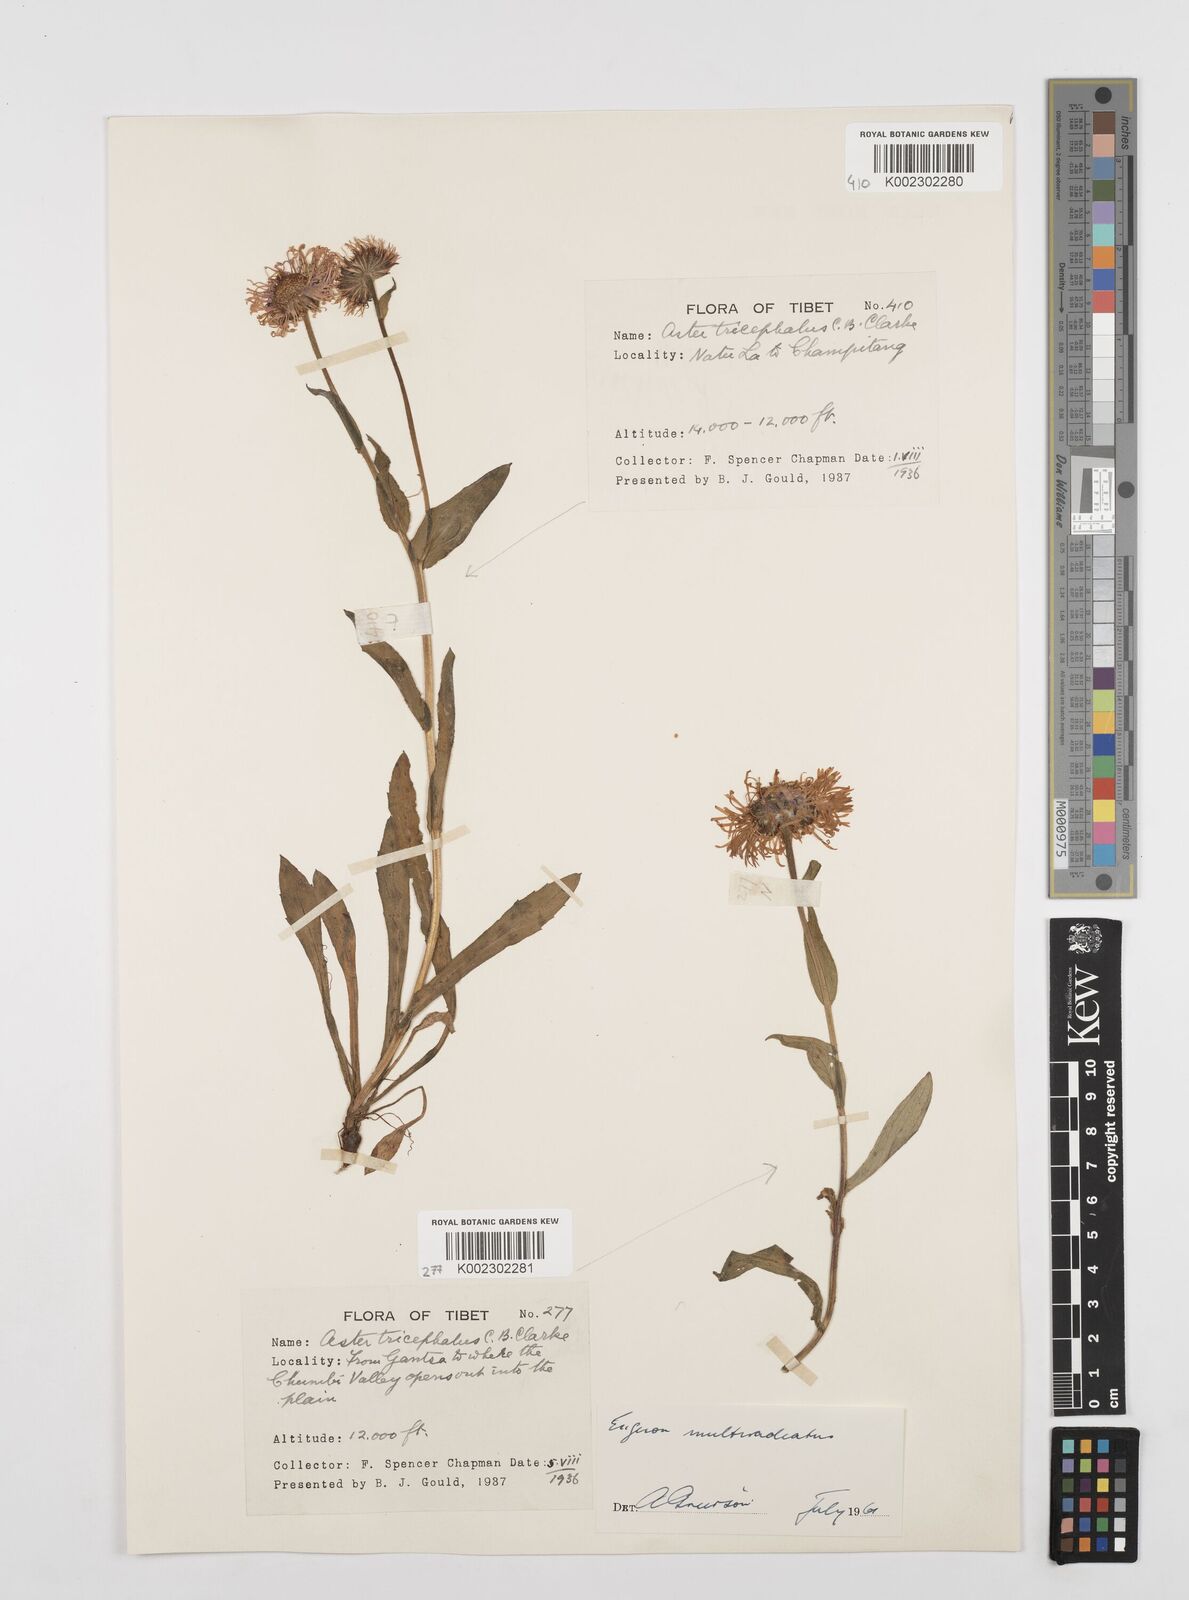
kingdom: Plantae
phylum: Tracheophyta
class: Magnoliopsida
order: Asterales
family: Asteraceae
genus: Erigeron
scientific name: Erigeron multiradiatus
